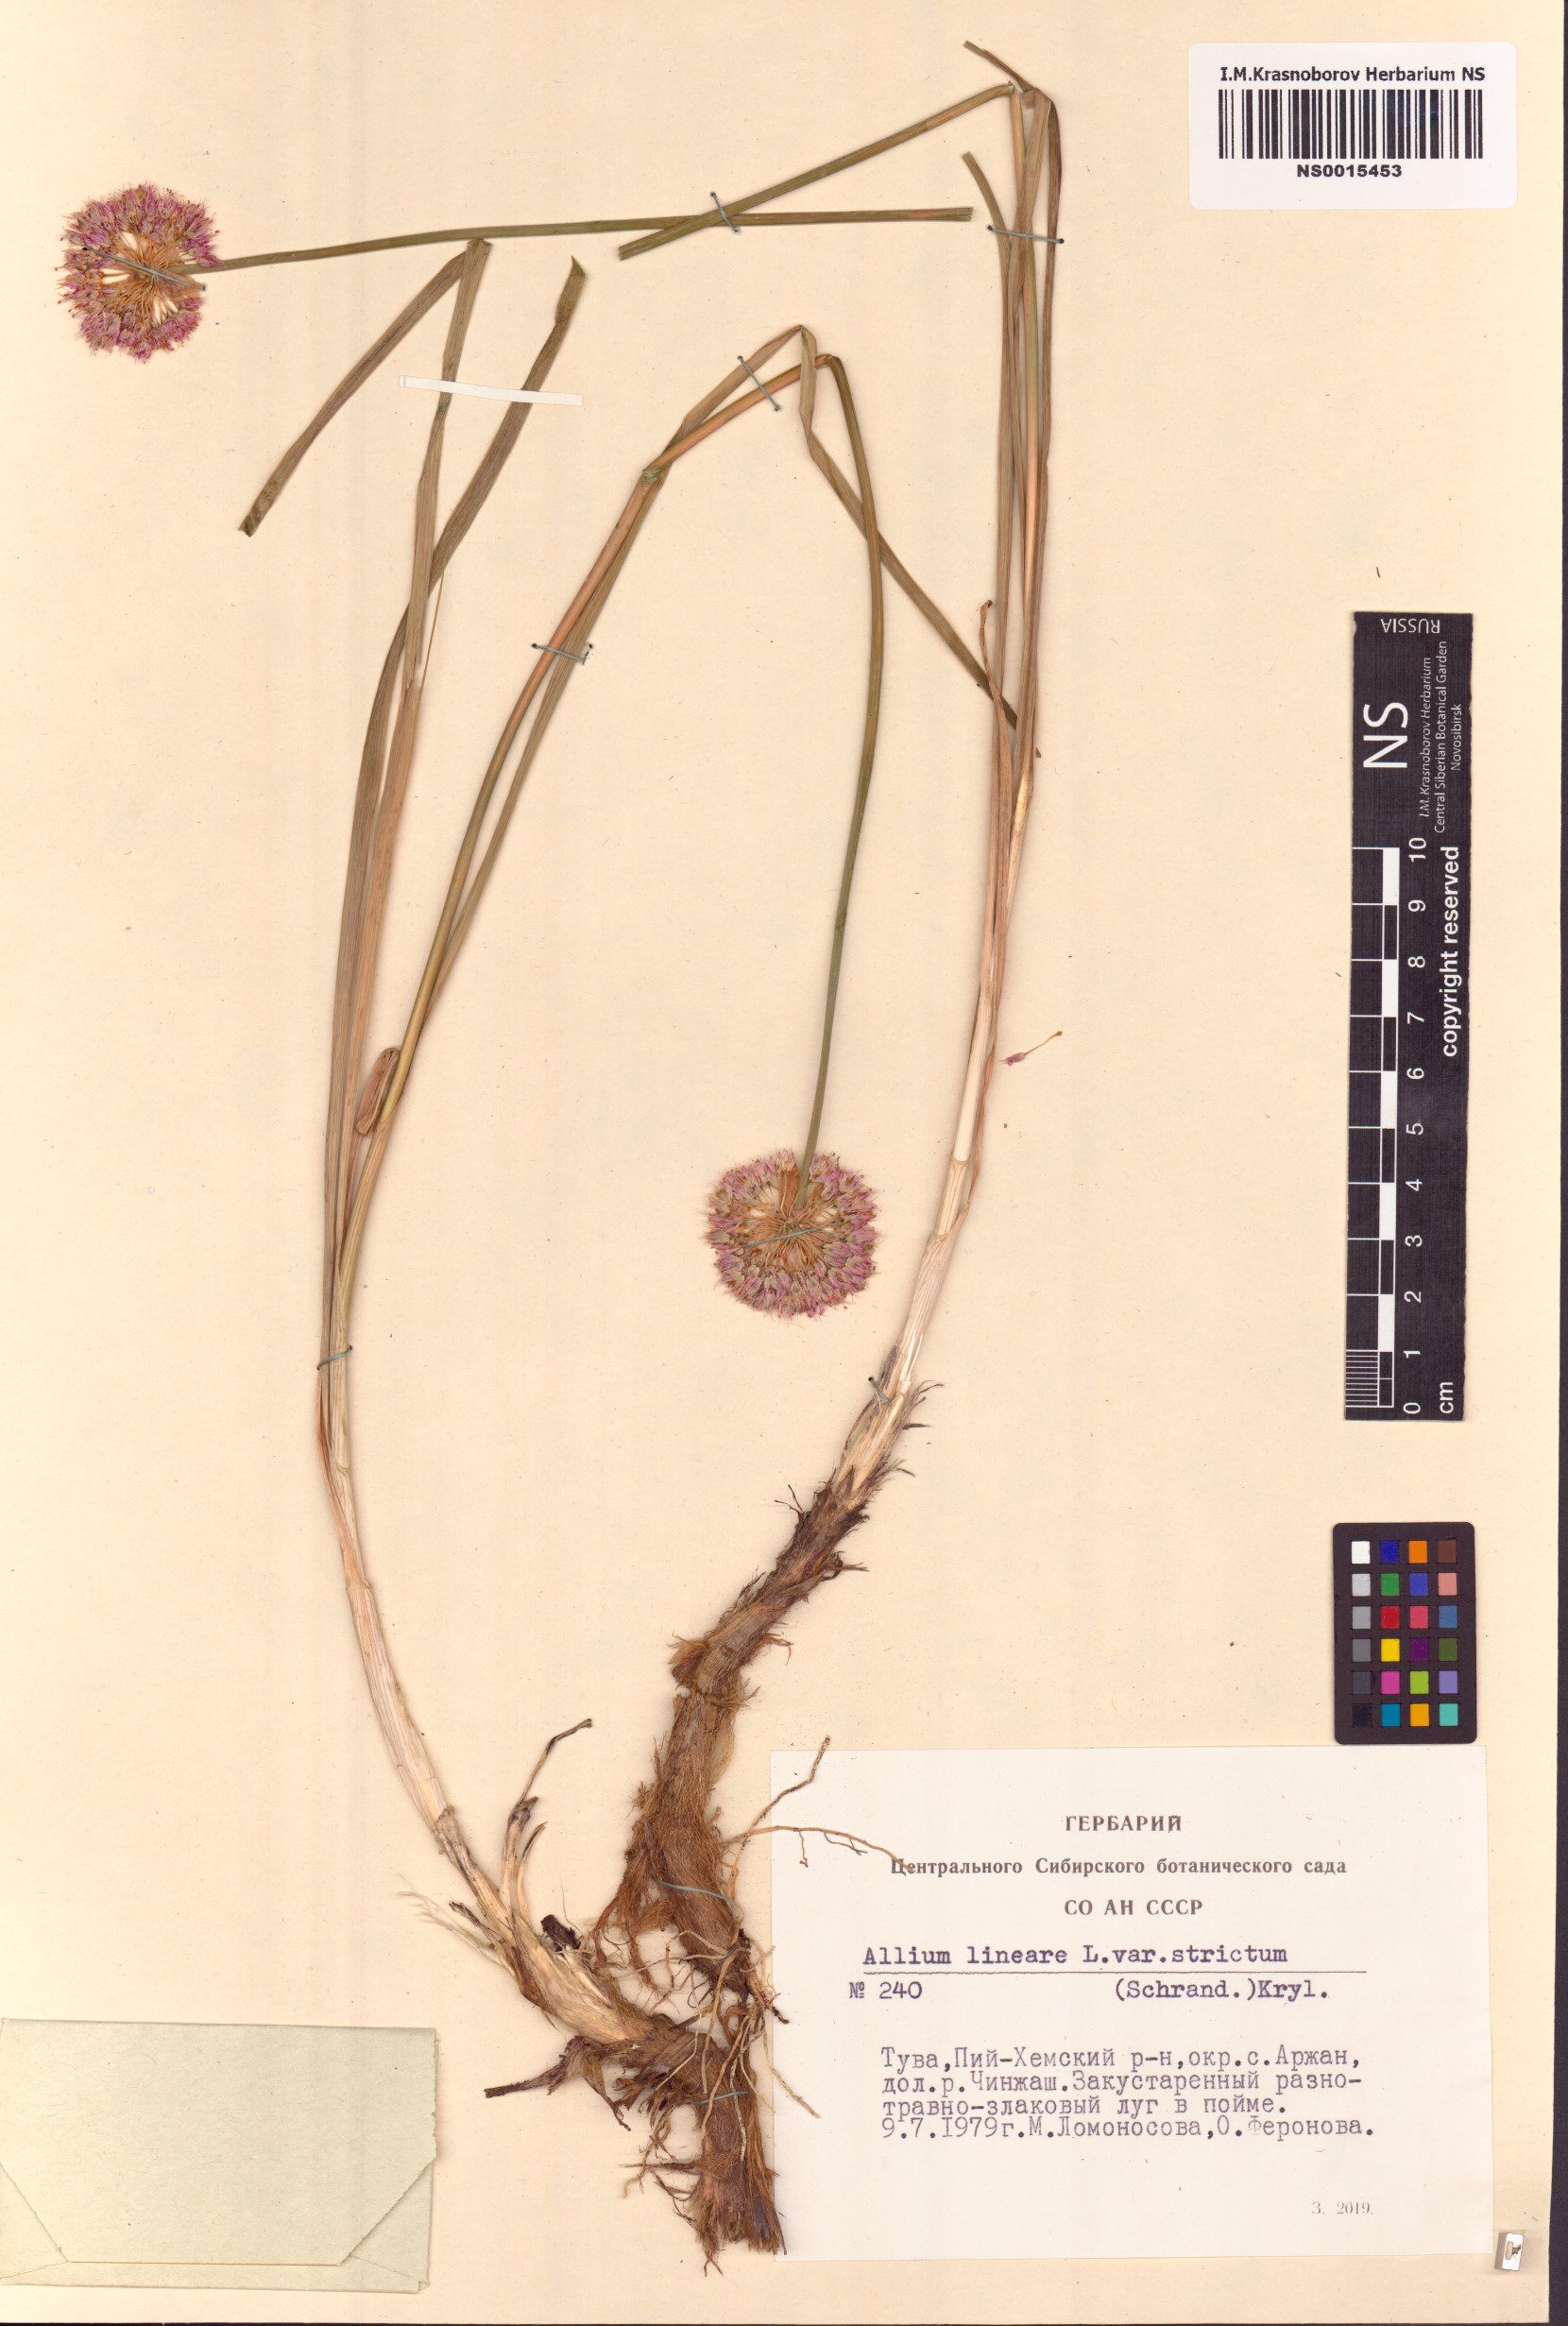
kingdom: Plantae
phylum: Tracheophyta
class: Liliopsida
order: Asparagales
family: Amaryllidaceae
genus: Allium
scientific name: Allium strictum
